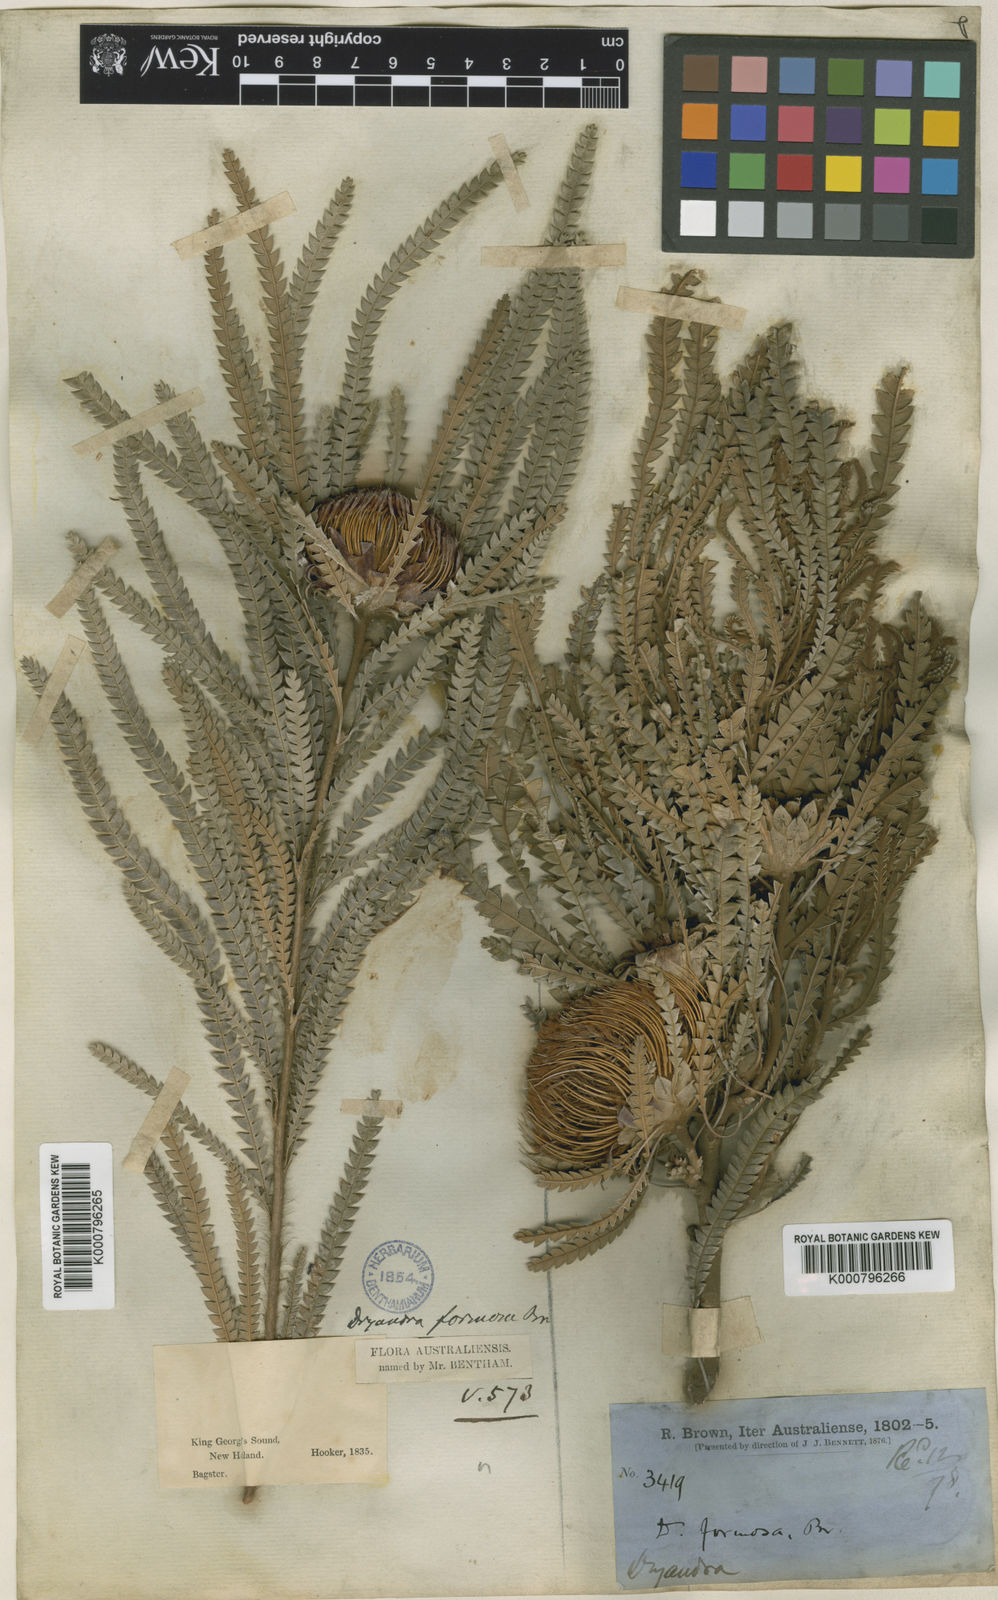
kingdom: Plantae
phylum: Tracheophyta
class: Magnoliopsida
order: Proteales
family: Proteaceae
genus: Banksia
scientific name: Banksia formosa
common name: Showy dryandra
